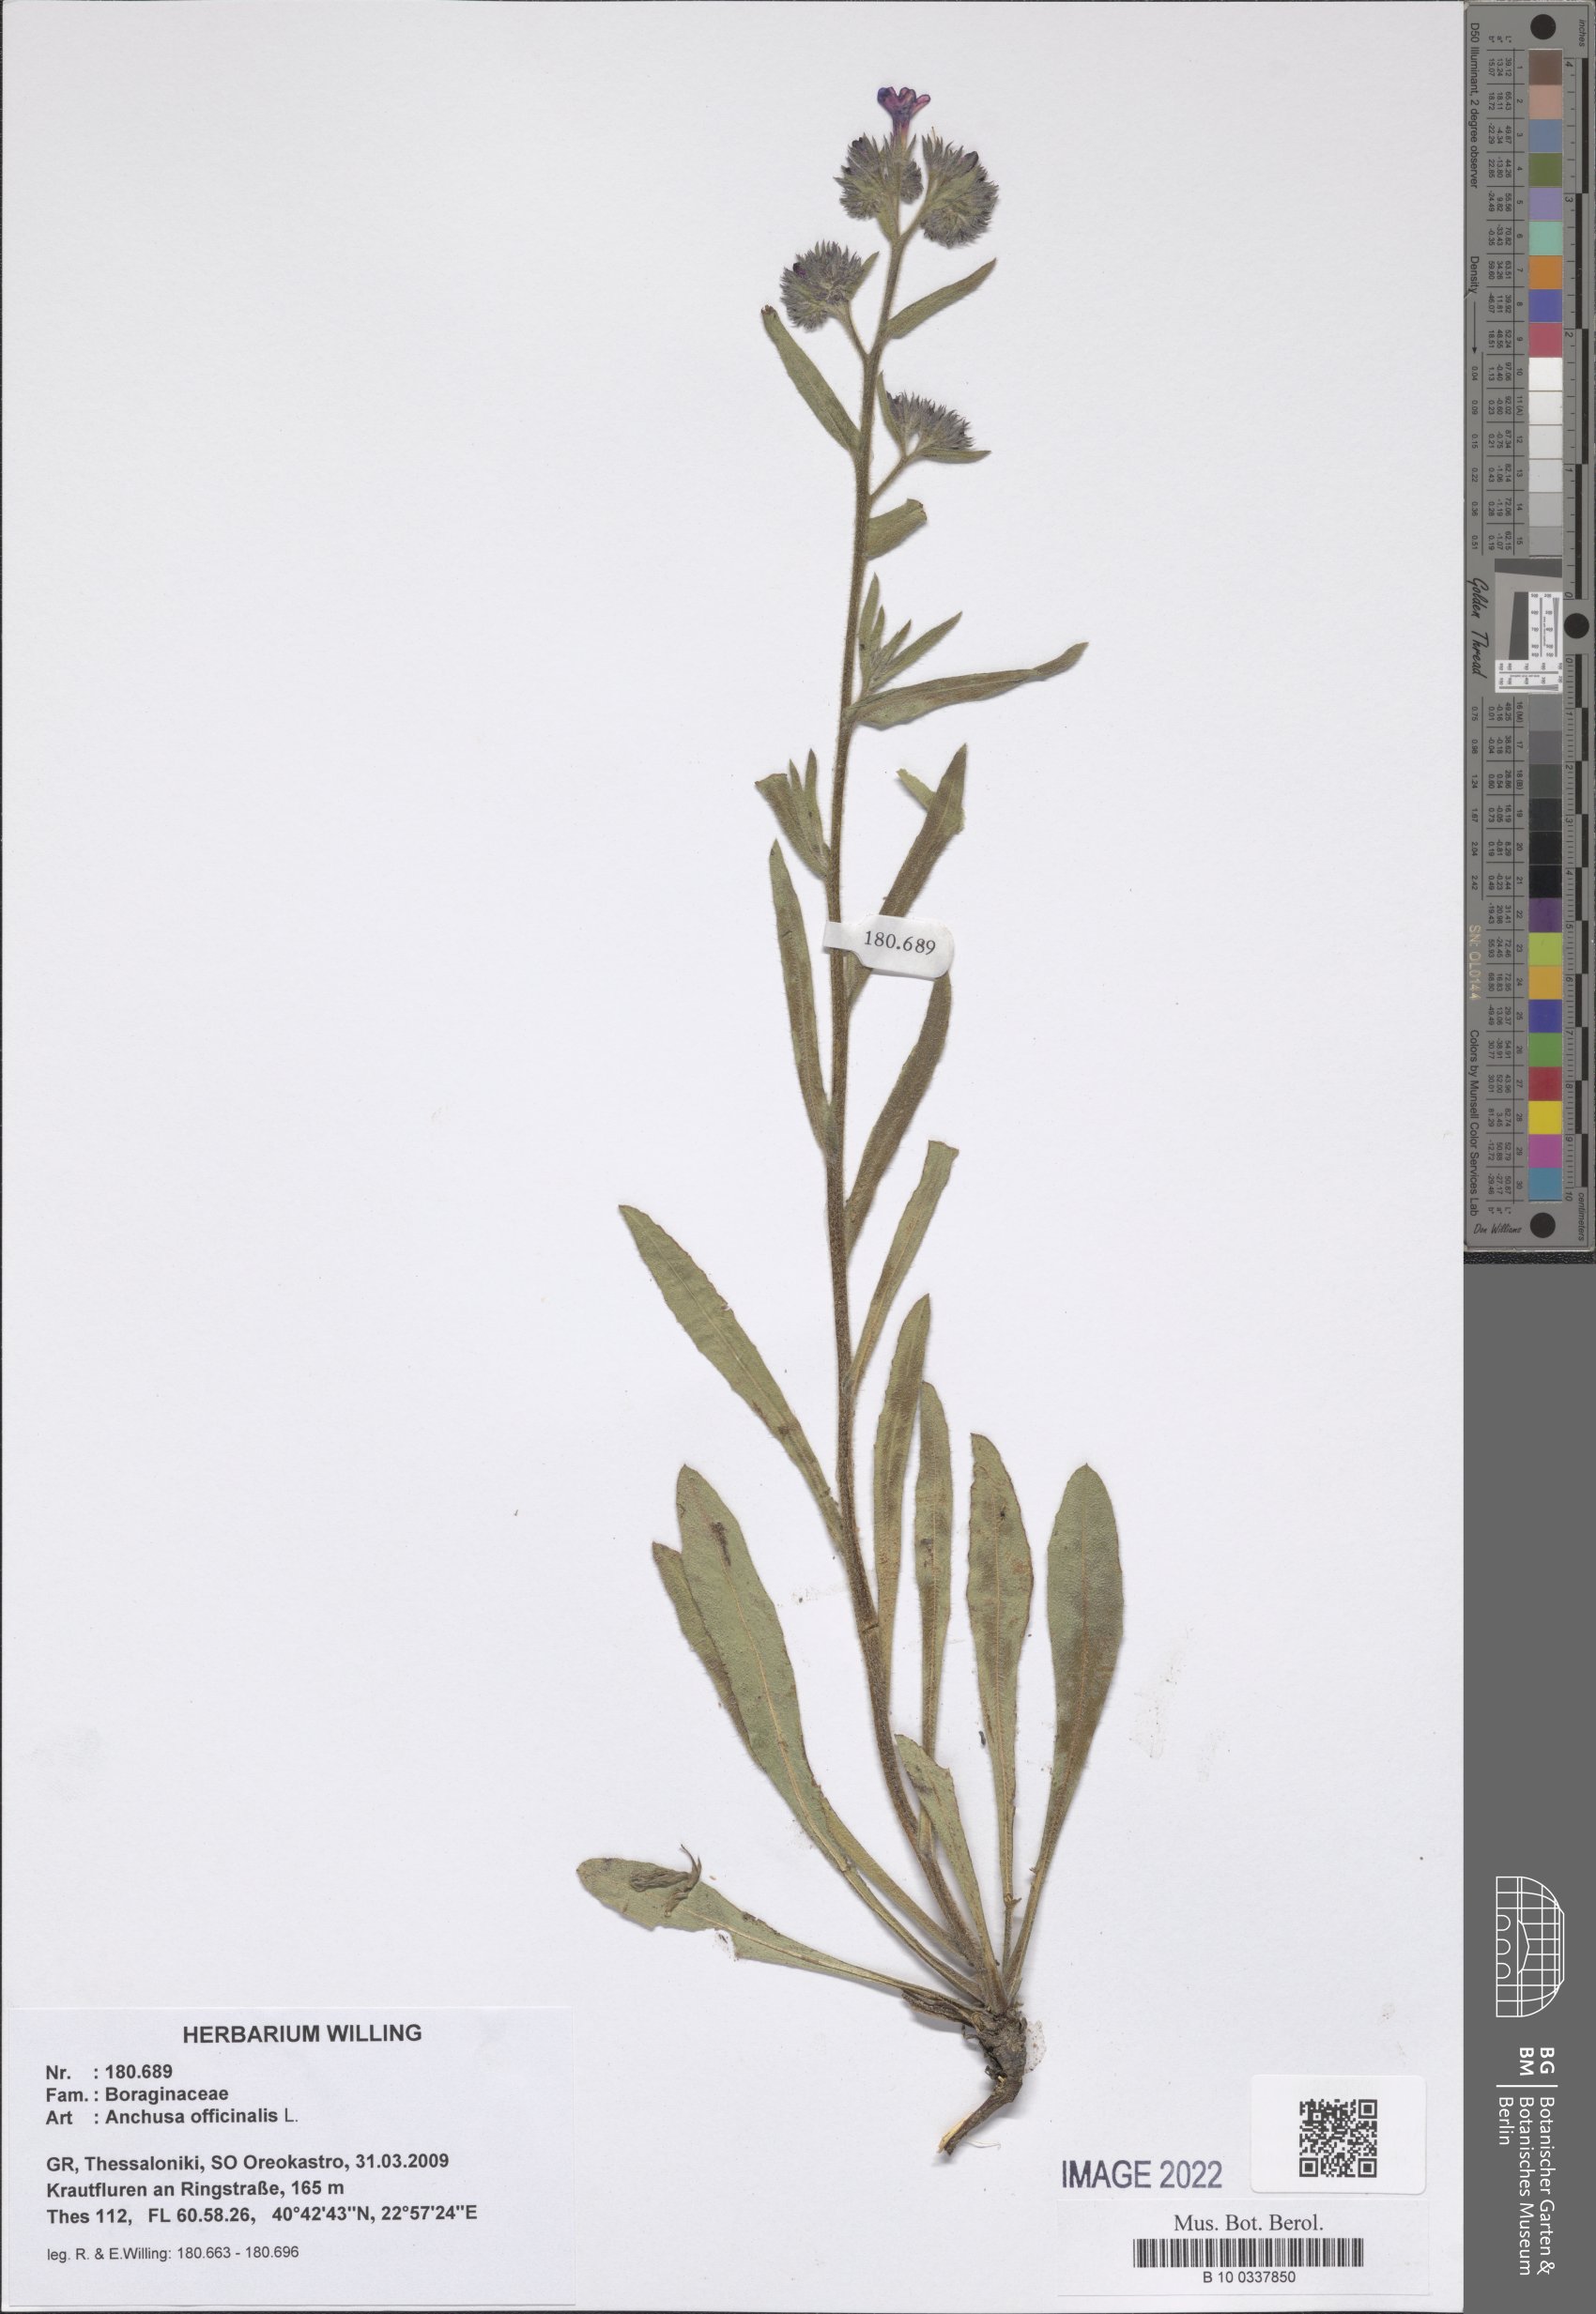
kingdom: Plantae
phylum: Tracheophyta
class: Magnoliopsida
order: Boraginales
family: Boraginaceae
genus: Anchusa
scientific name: Anchusa officinalis
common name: Alkanet
